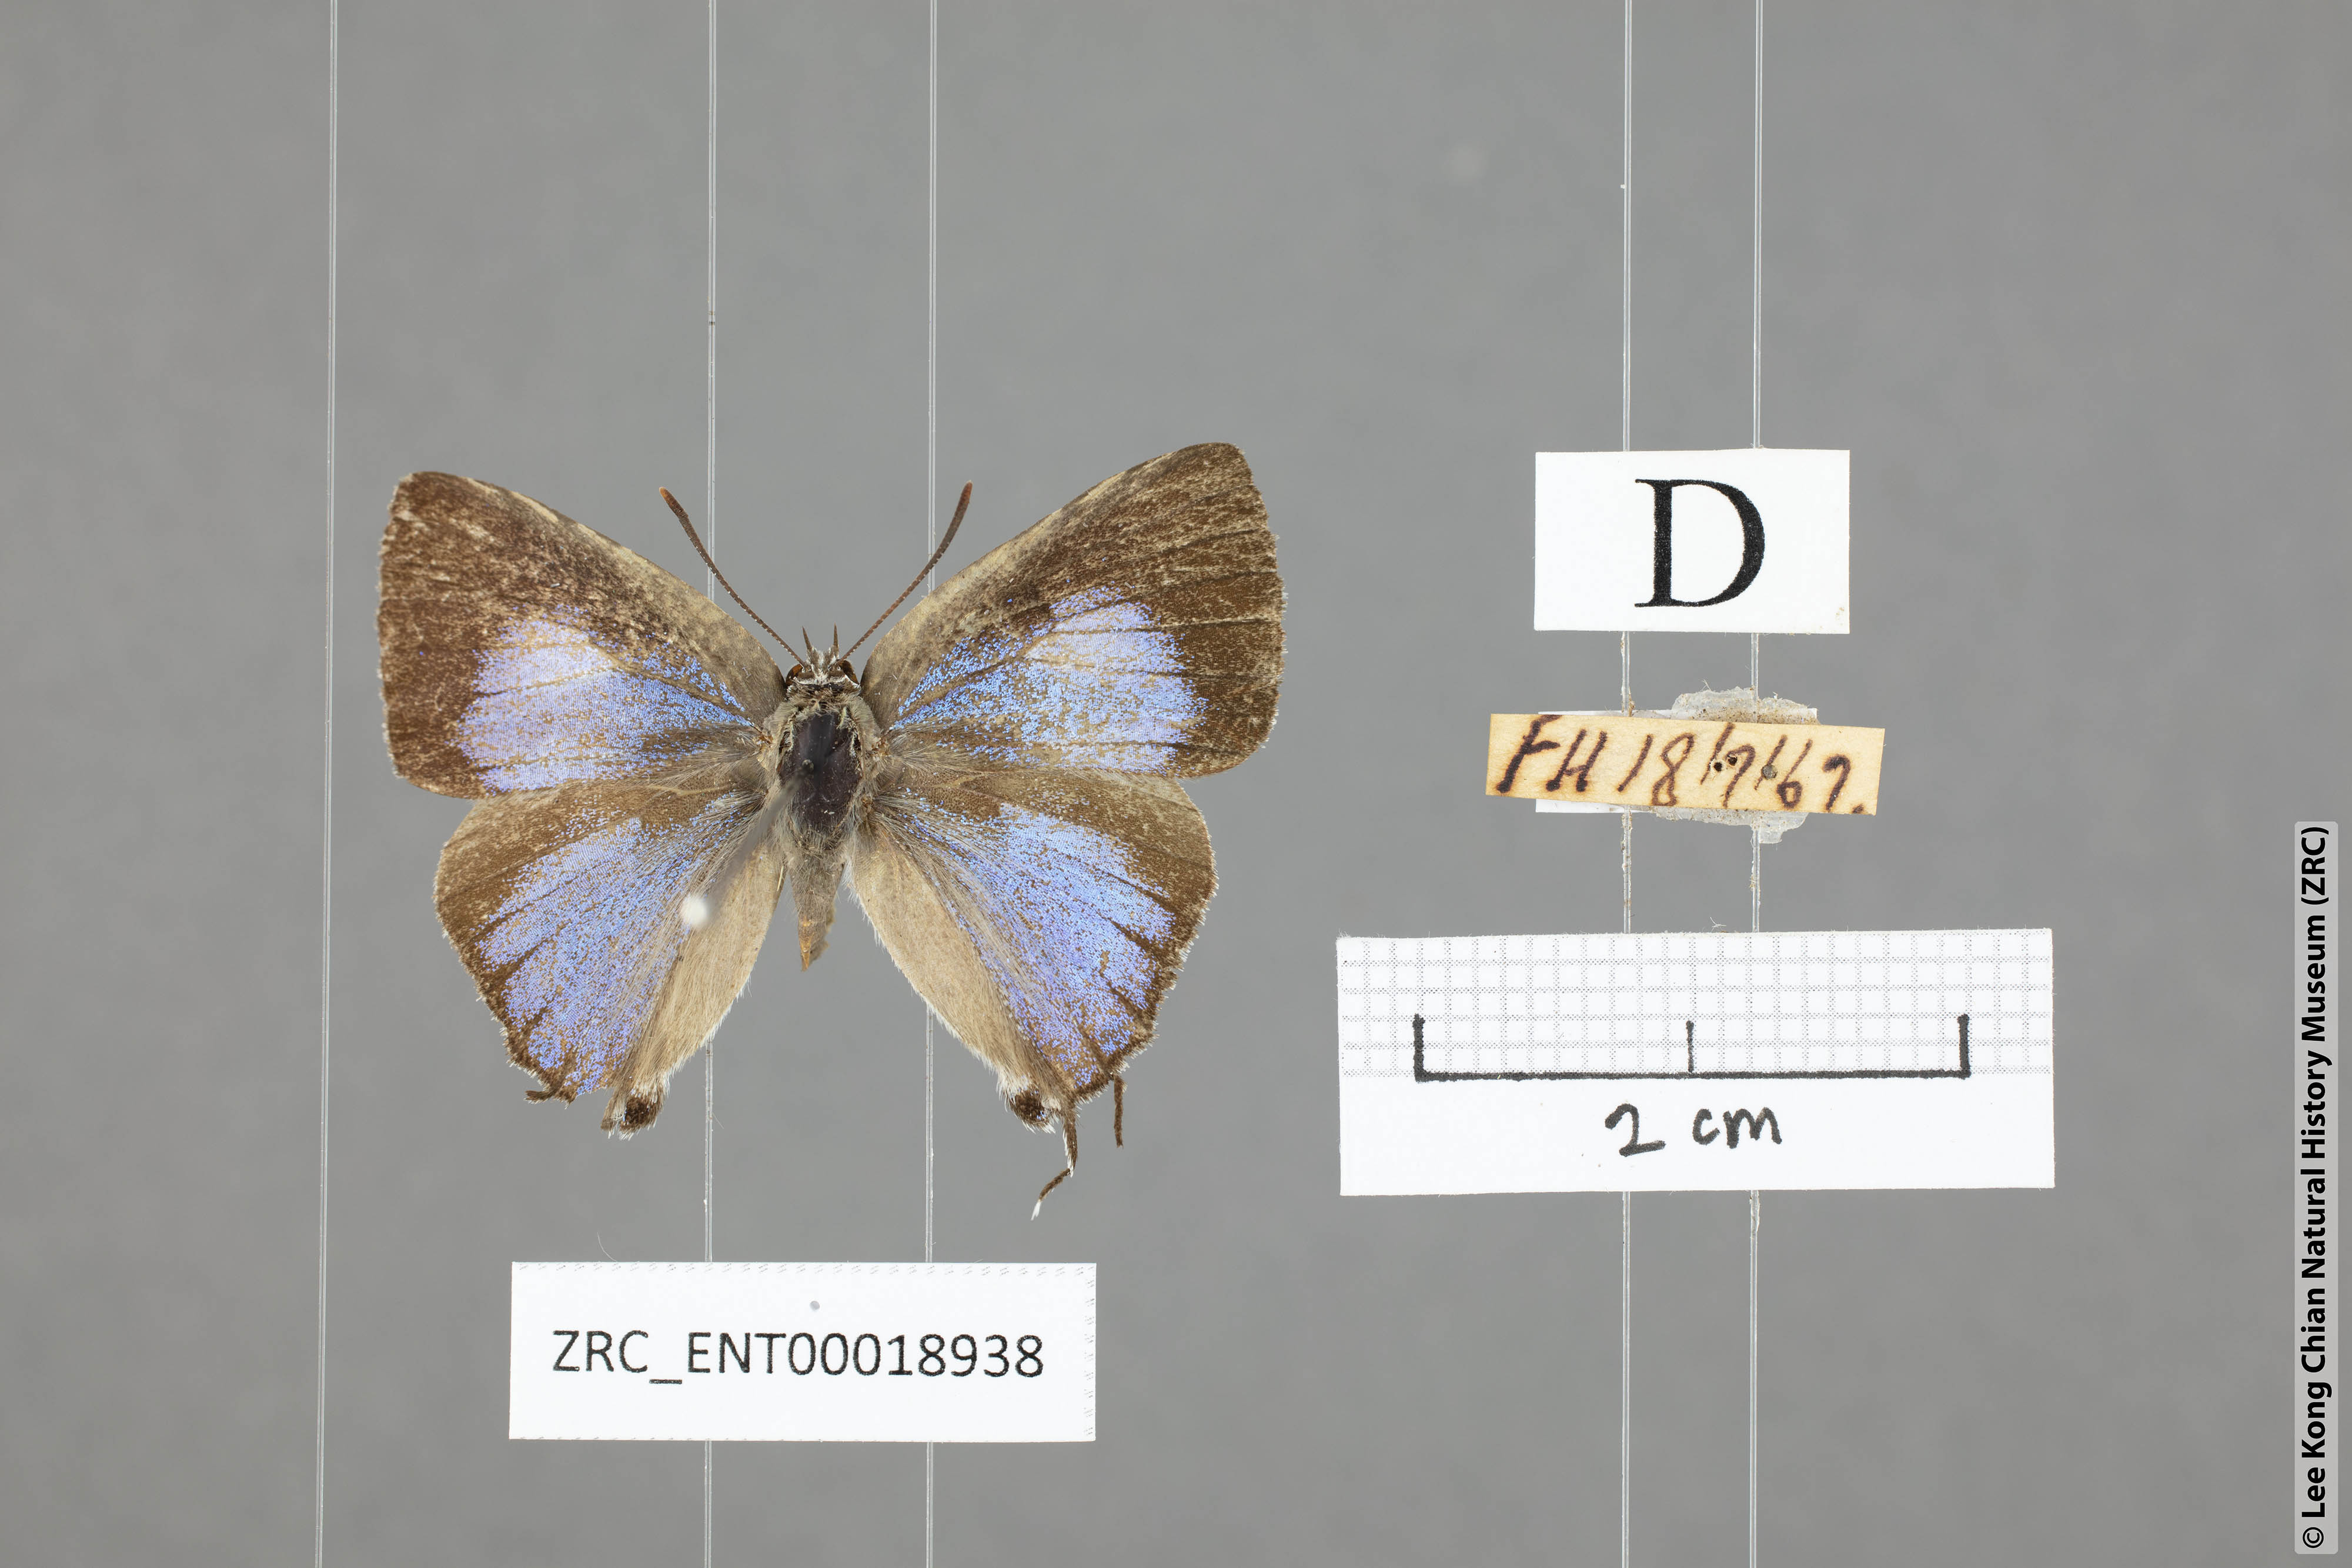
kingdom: Animalia
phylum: Arthropoda
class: Insecta
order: Lepidoptera
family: Lycaenidae
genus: Ancema
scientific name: Ancema ctesia
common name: Bi-spot royal
